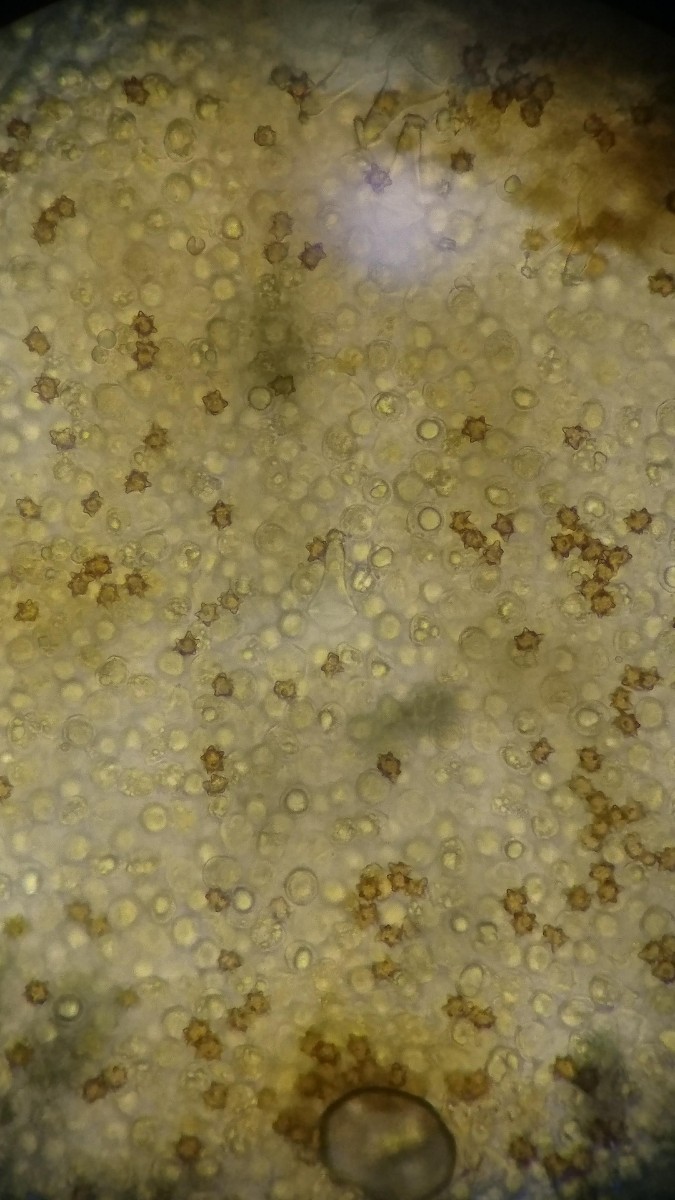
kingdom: Fungi
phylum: Basidiomycota
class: Agaricomycetes
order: Agaricales
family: Inocybaceae
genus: Inocybe
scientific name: Inocybe asterospora
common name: stjernesporet trævlhat
